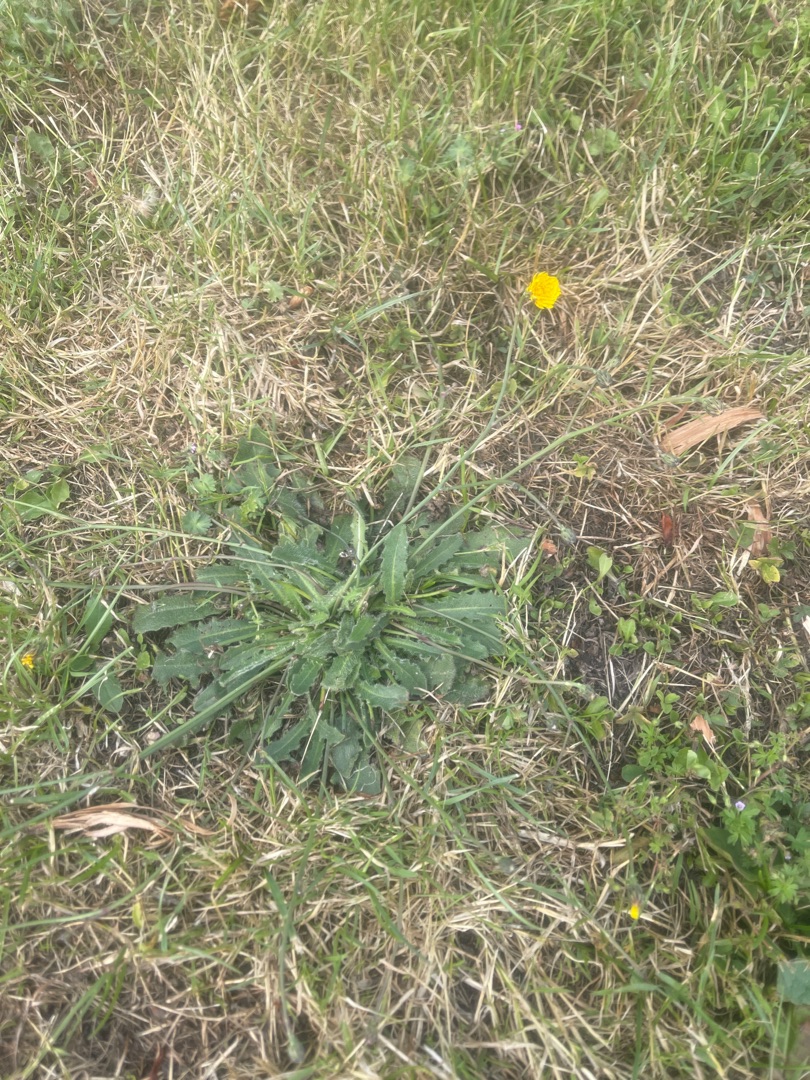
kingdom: Plantae
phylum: Tracheophyta
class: Magnoliopsida
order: Asterales
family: Asteraceae
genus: Hypochaeris
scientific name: Hypochaeris radicata
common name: Almindelig kongepen
